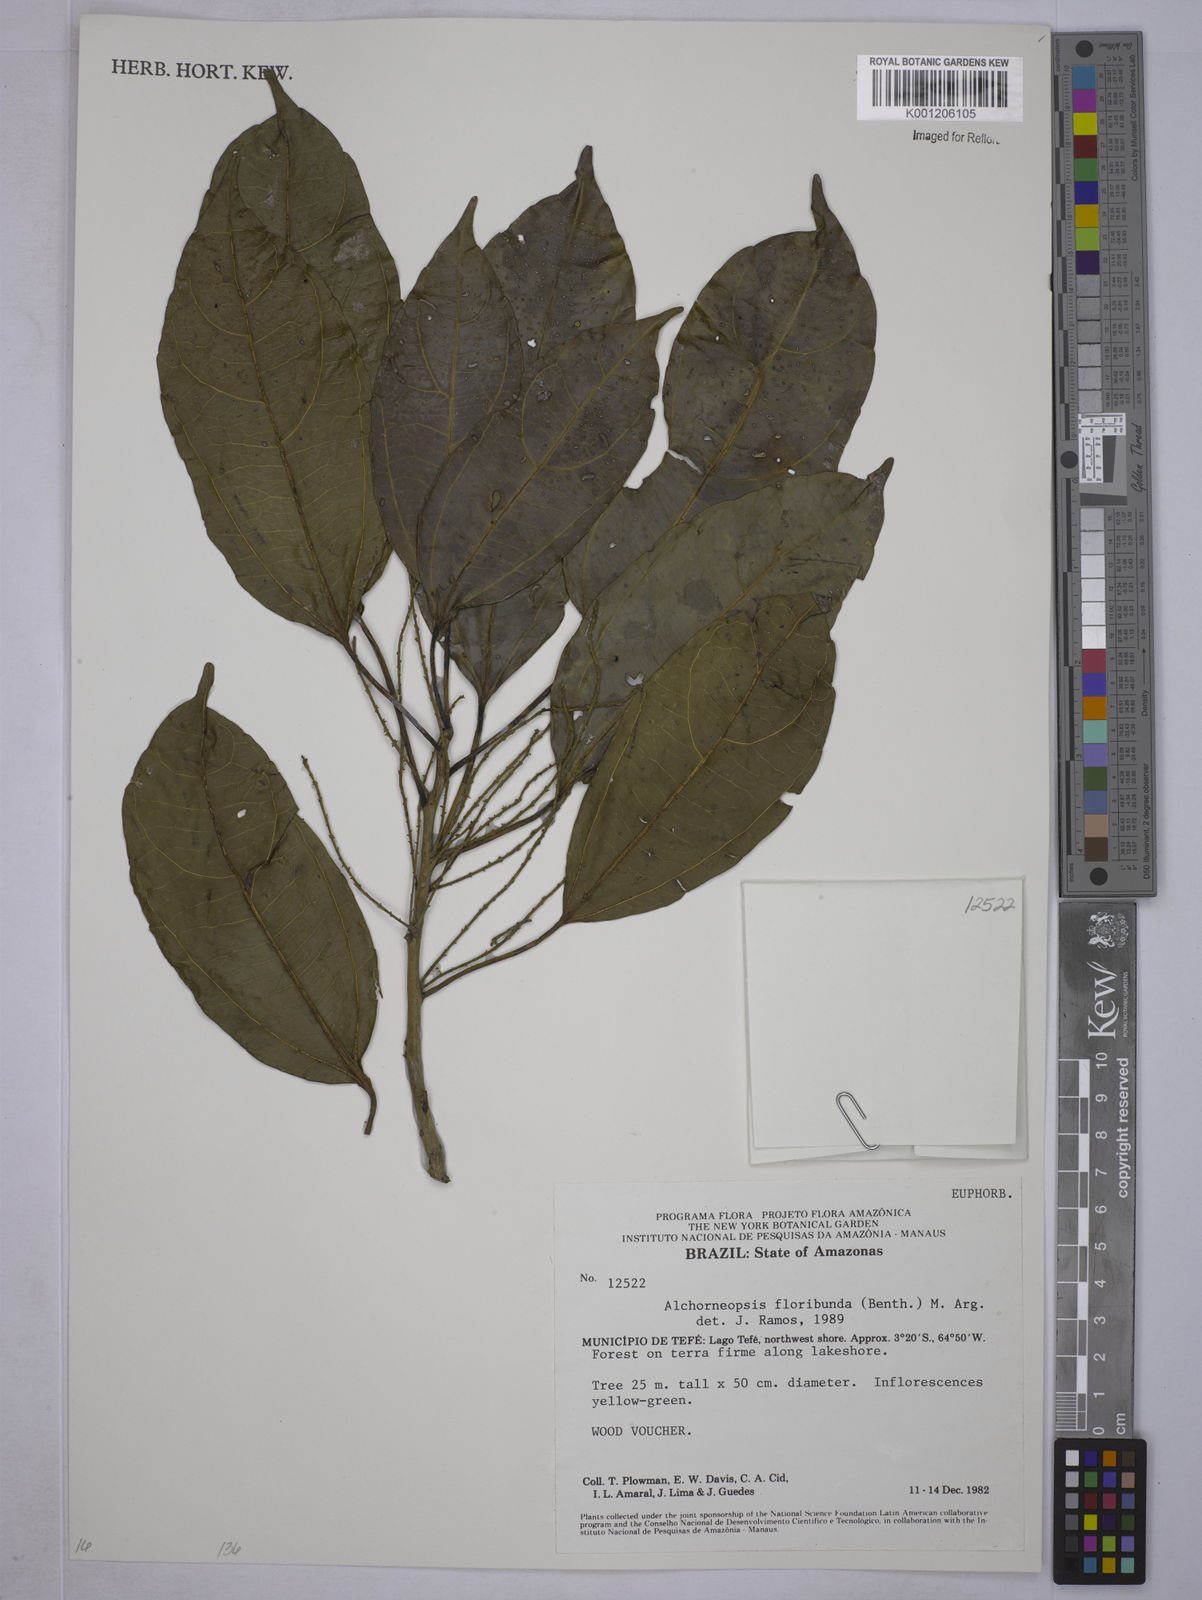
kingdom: Plantae
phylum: Tracheophyta
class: Magnoliopsida
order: Malpighiales
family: Euphorbiaceae
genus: Alchorneopsis
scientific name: Alchorneopsis
